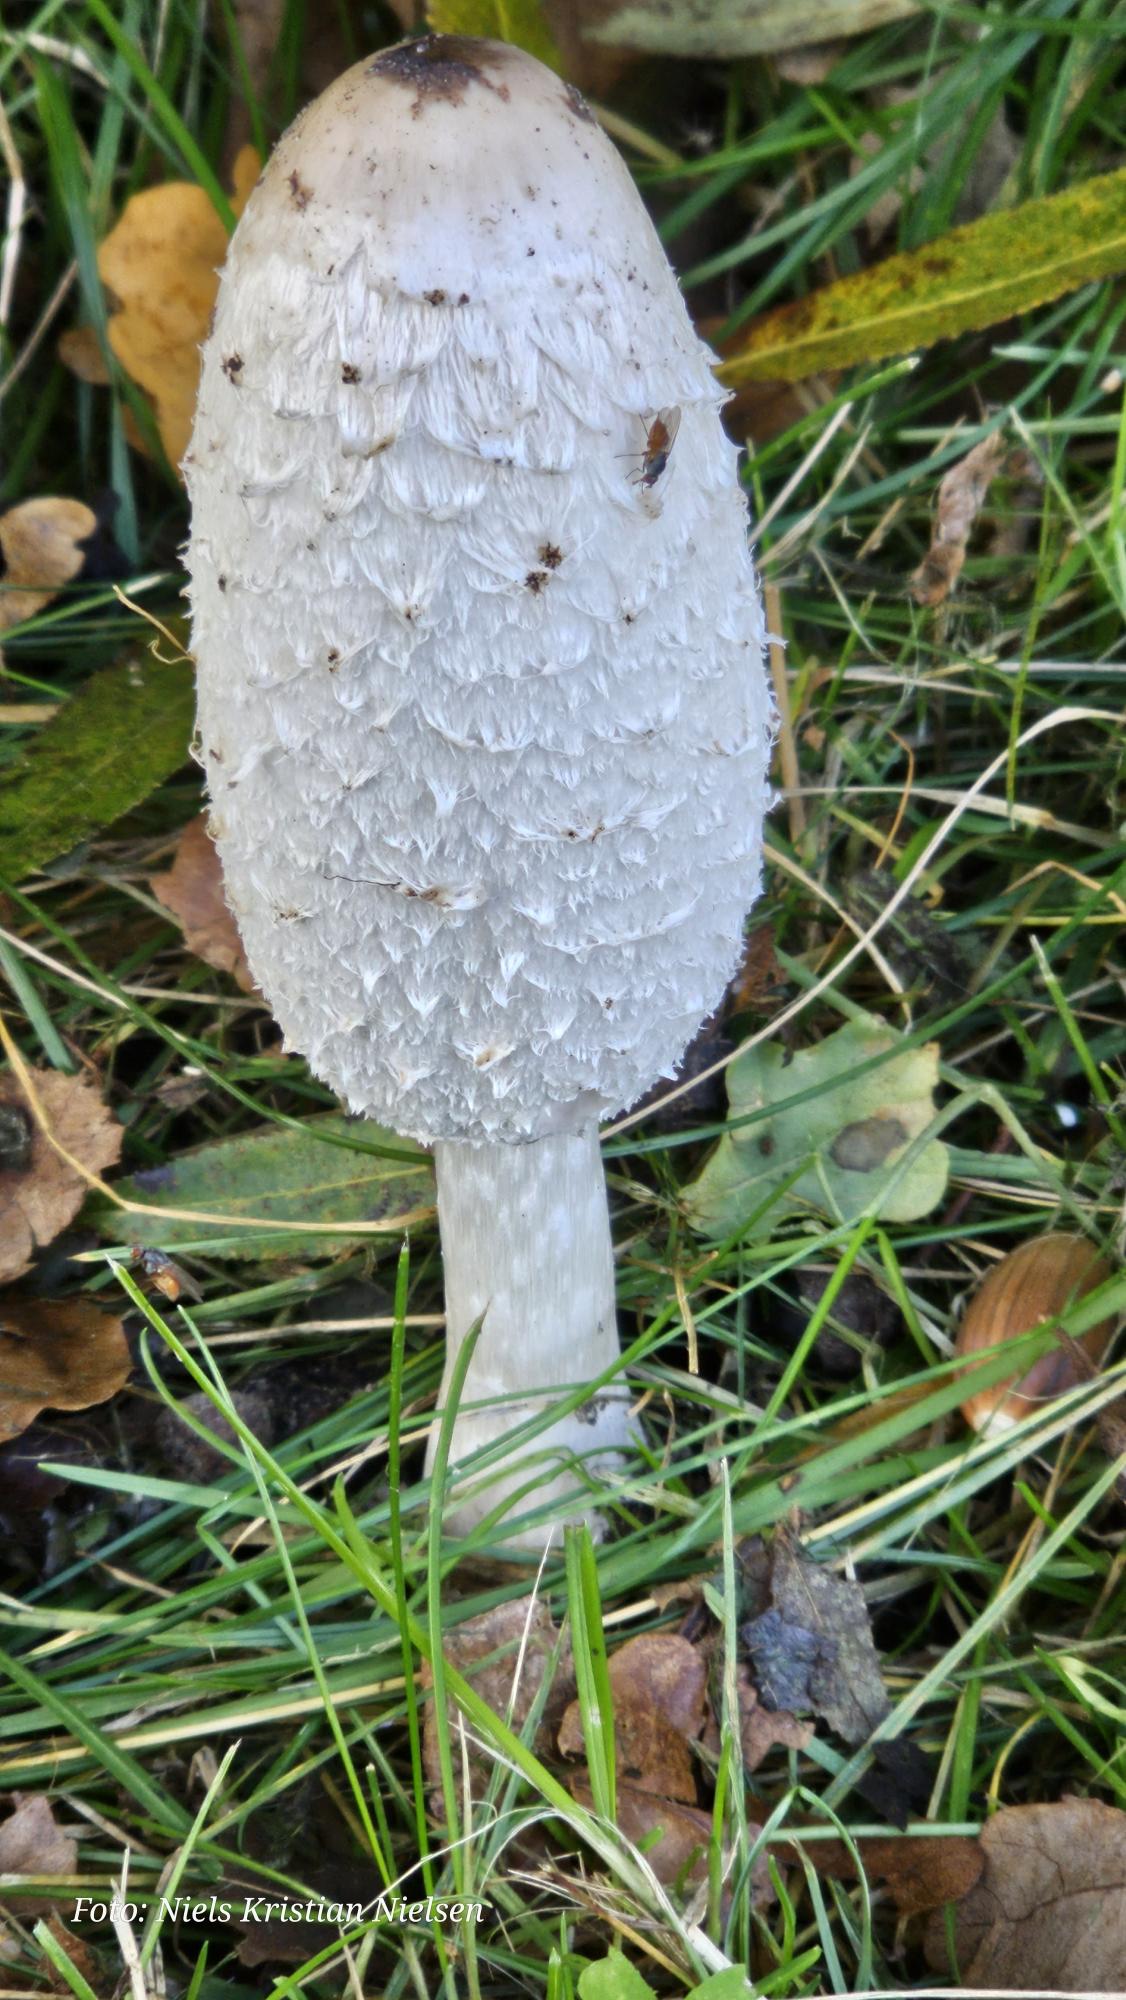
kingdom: Fungi
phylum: Basidiomycota
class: Agaricomycetes
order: Agaricales
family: Agaricaceae
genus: Coprinus
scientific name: Coprinus comatus
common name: Stor parykhat
